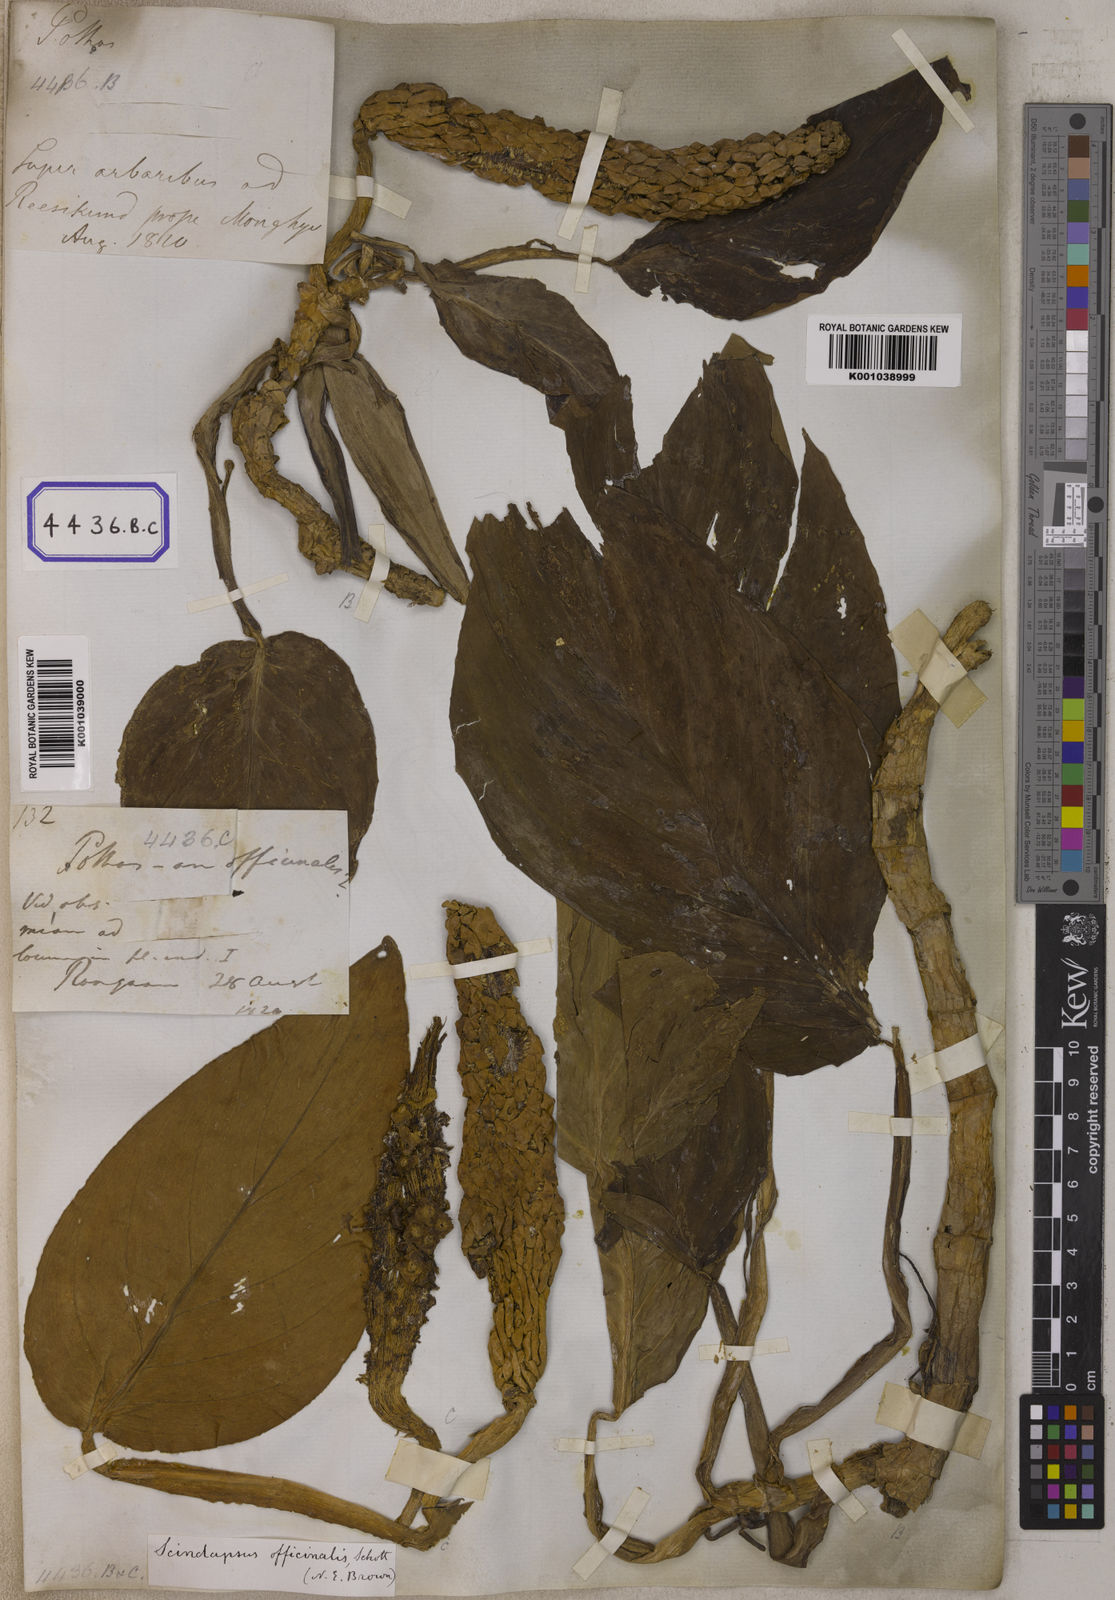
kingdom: Plantae
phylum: Tracheophyta
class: Liliopsida
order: Alismatales
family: Araceae
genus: Scindapsus
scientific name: Scindapsus officinalis
